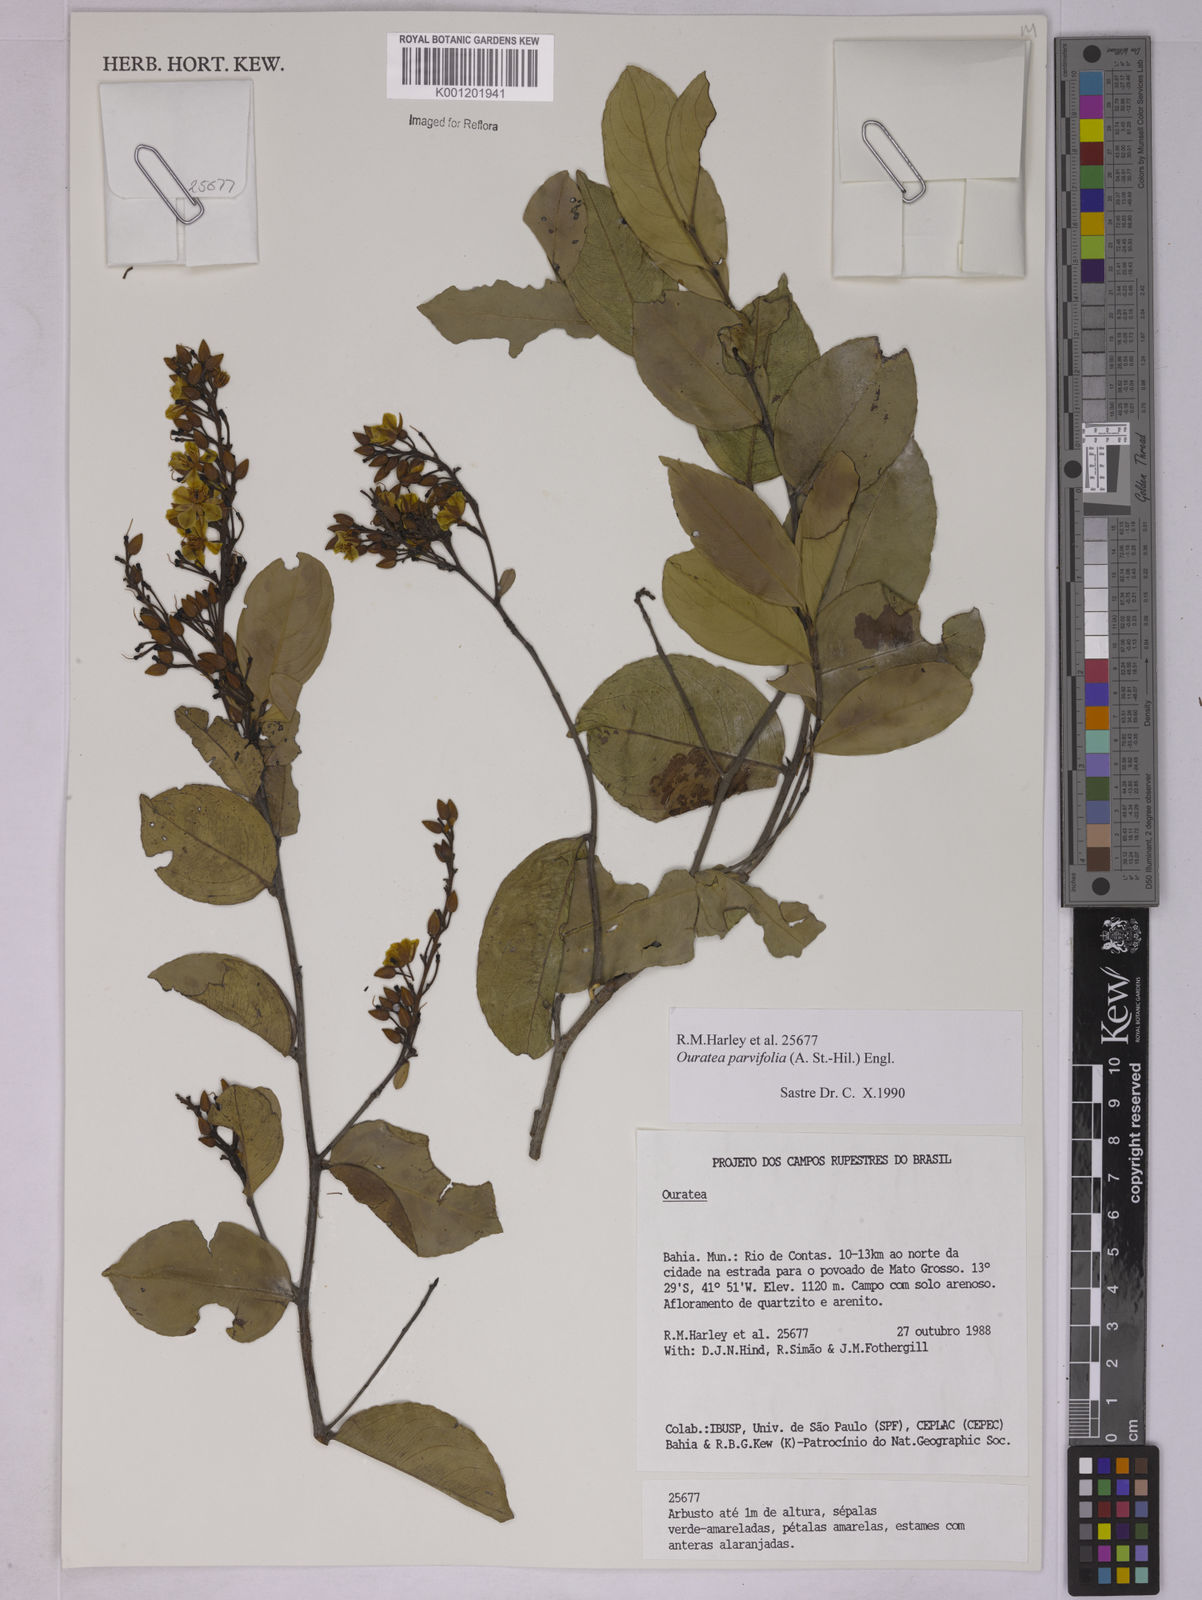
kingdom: Plantae
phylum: Tracheophyta
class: Magnoliopsida
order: Malpighiales
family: Ochnaceae
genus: Ouratea
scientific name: Ouratea parvifolia
